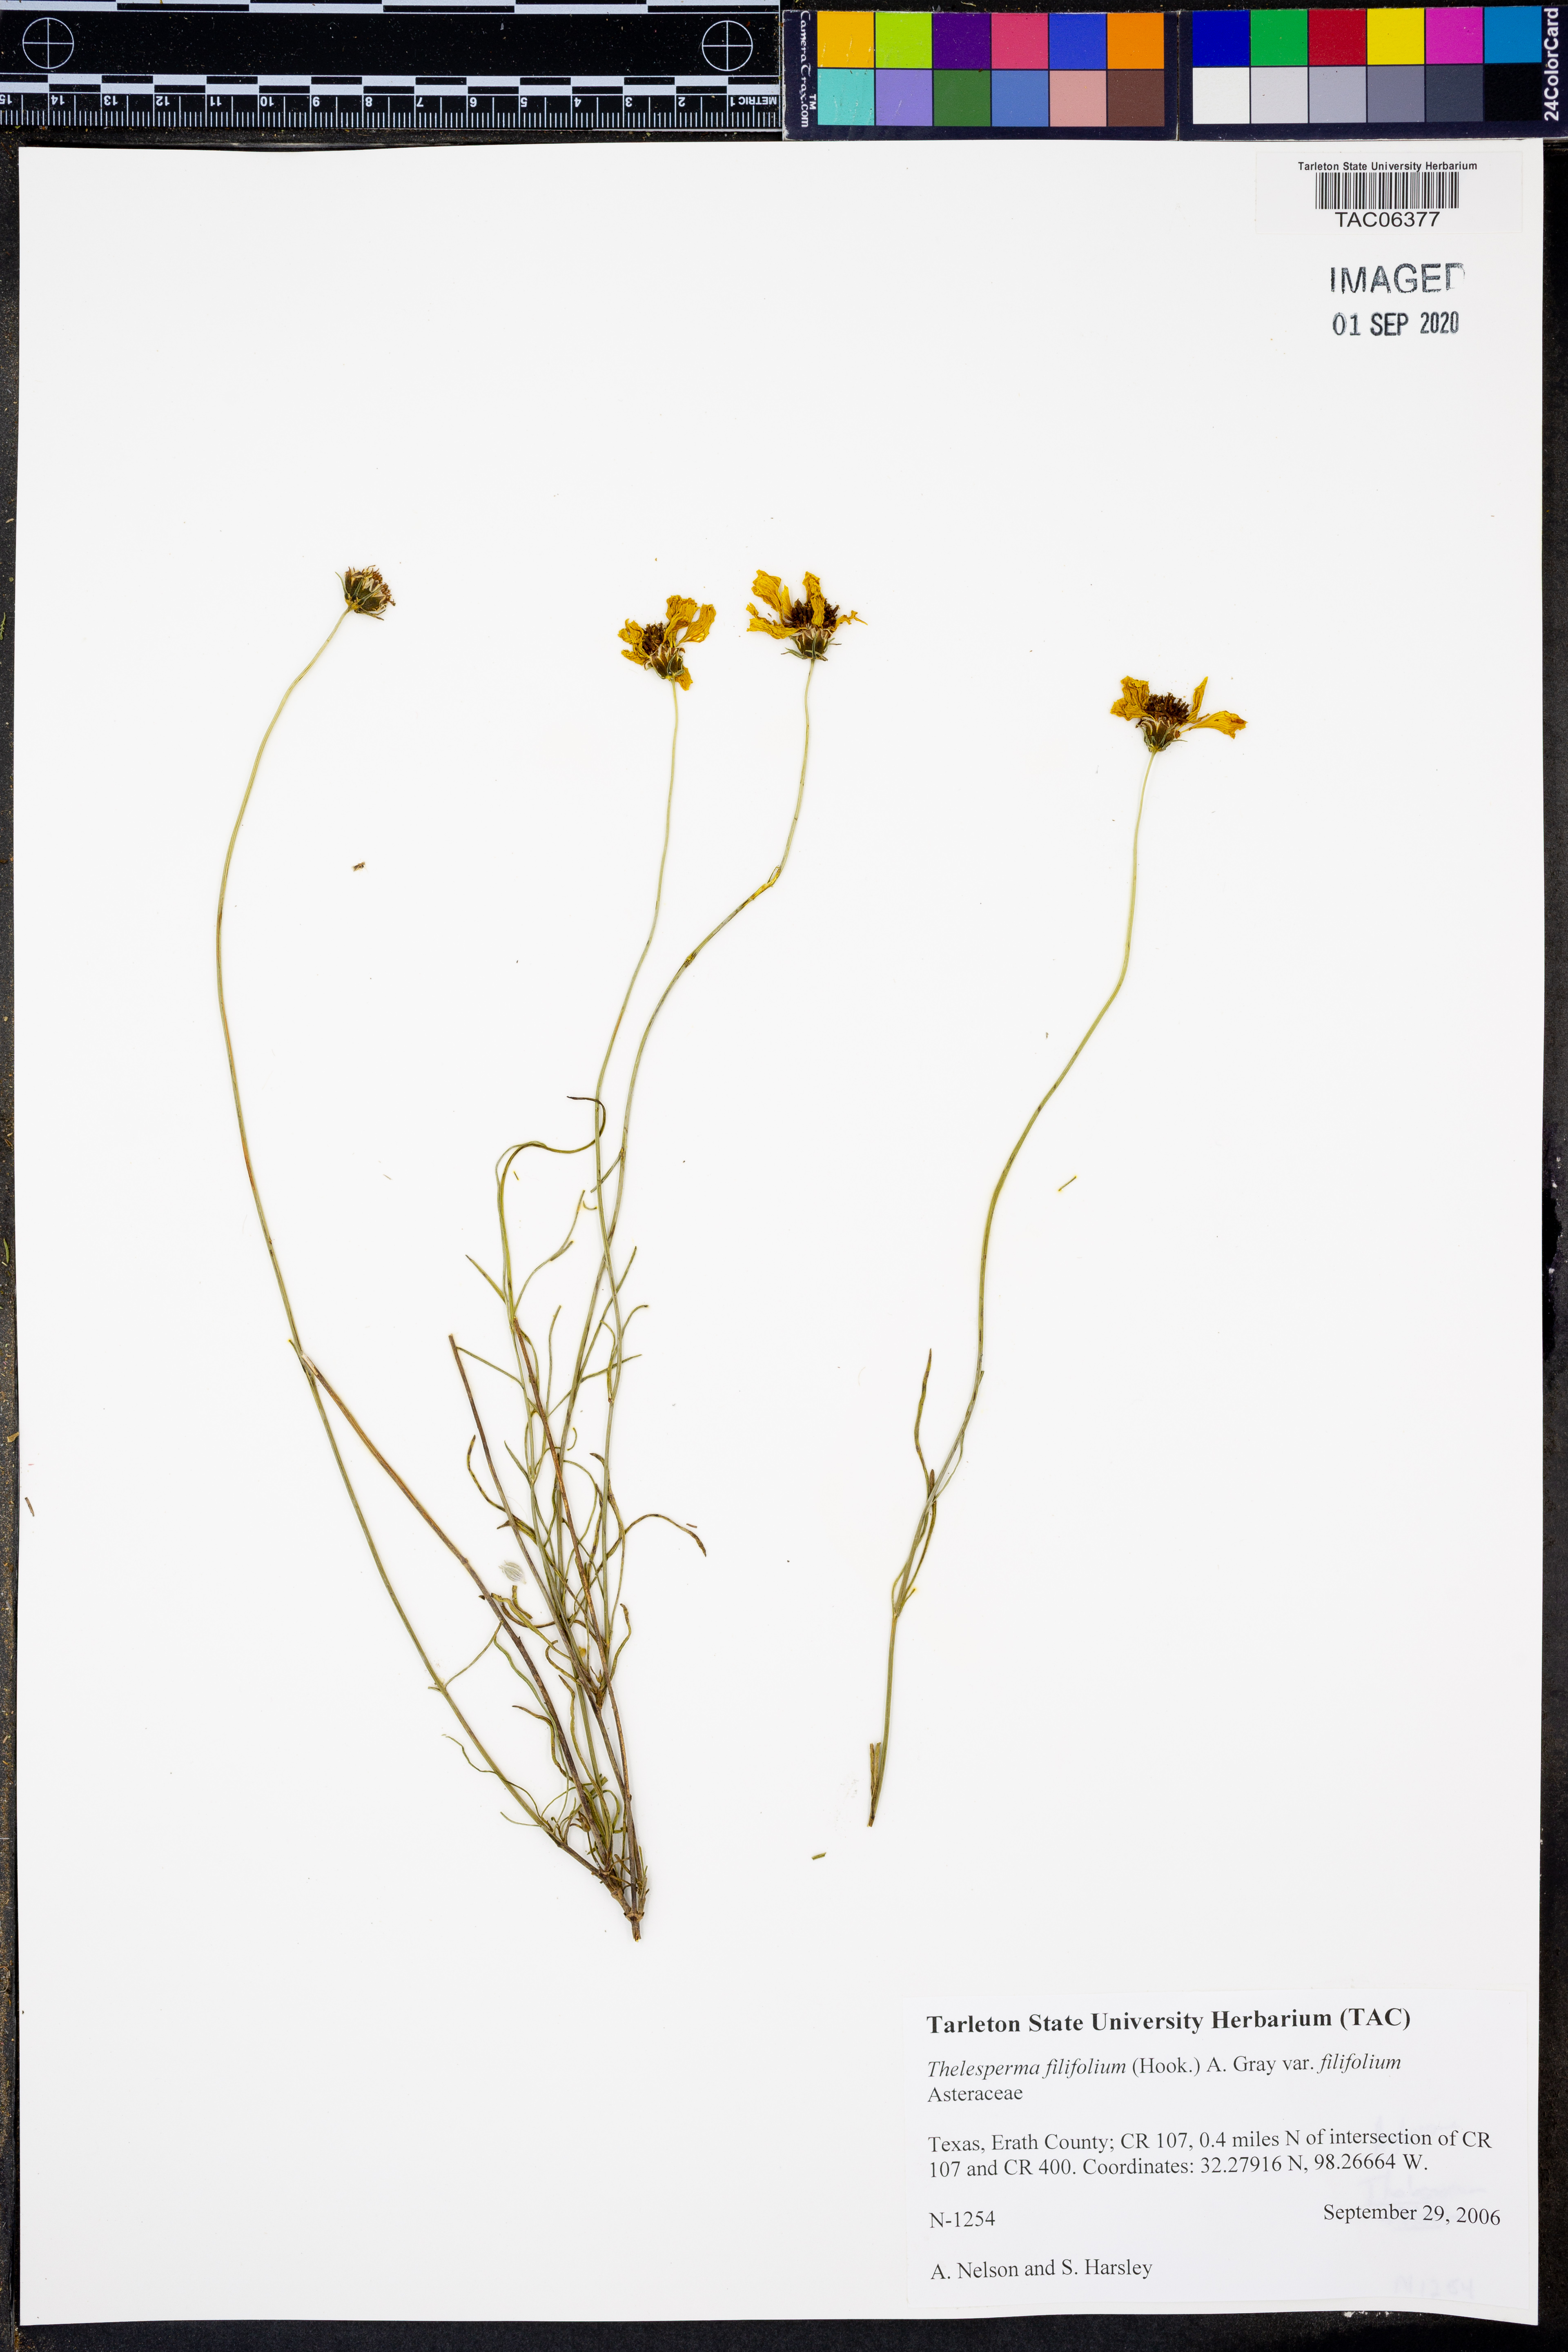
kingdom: Plantae
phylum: Tracheophyta
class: Magnoliopsida
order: Asterales
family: Asteraceae
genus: Thelesperma
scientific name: Thelesperma filifolium
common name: Stiff greenthread
